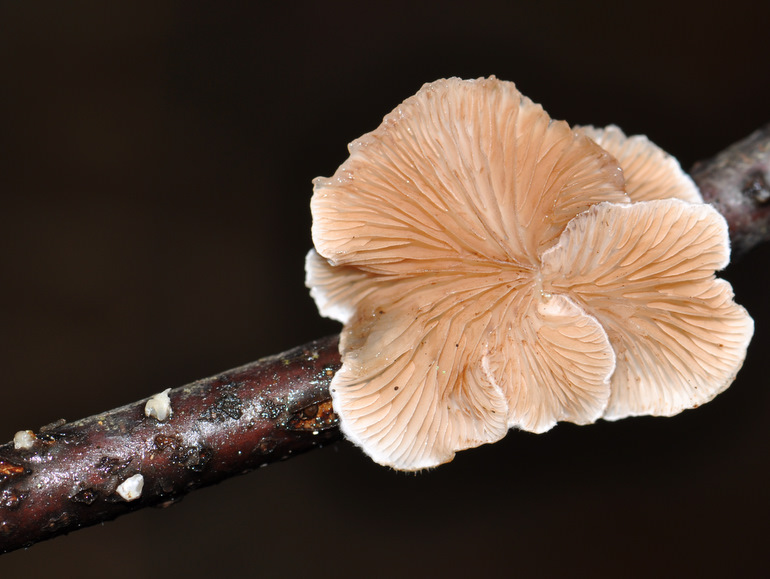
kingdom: Fungi
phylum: Basidiomycota
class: Agaricomycetes
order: Agaricales
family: Crepidotaceae
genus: Crepidotus
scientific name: Crepidotus variabilis
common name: forskelligformet muslingesvamp
